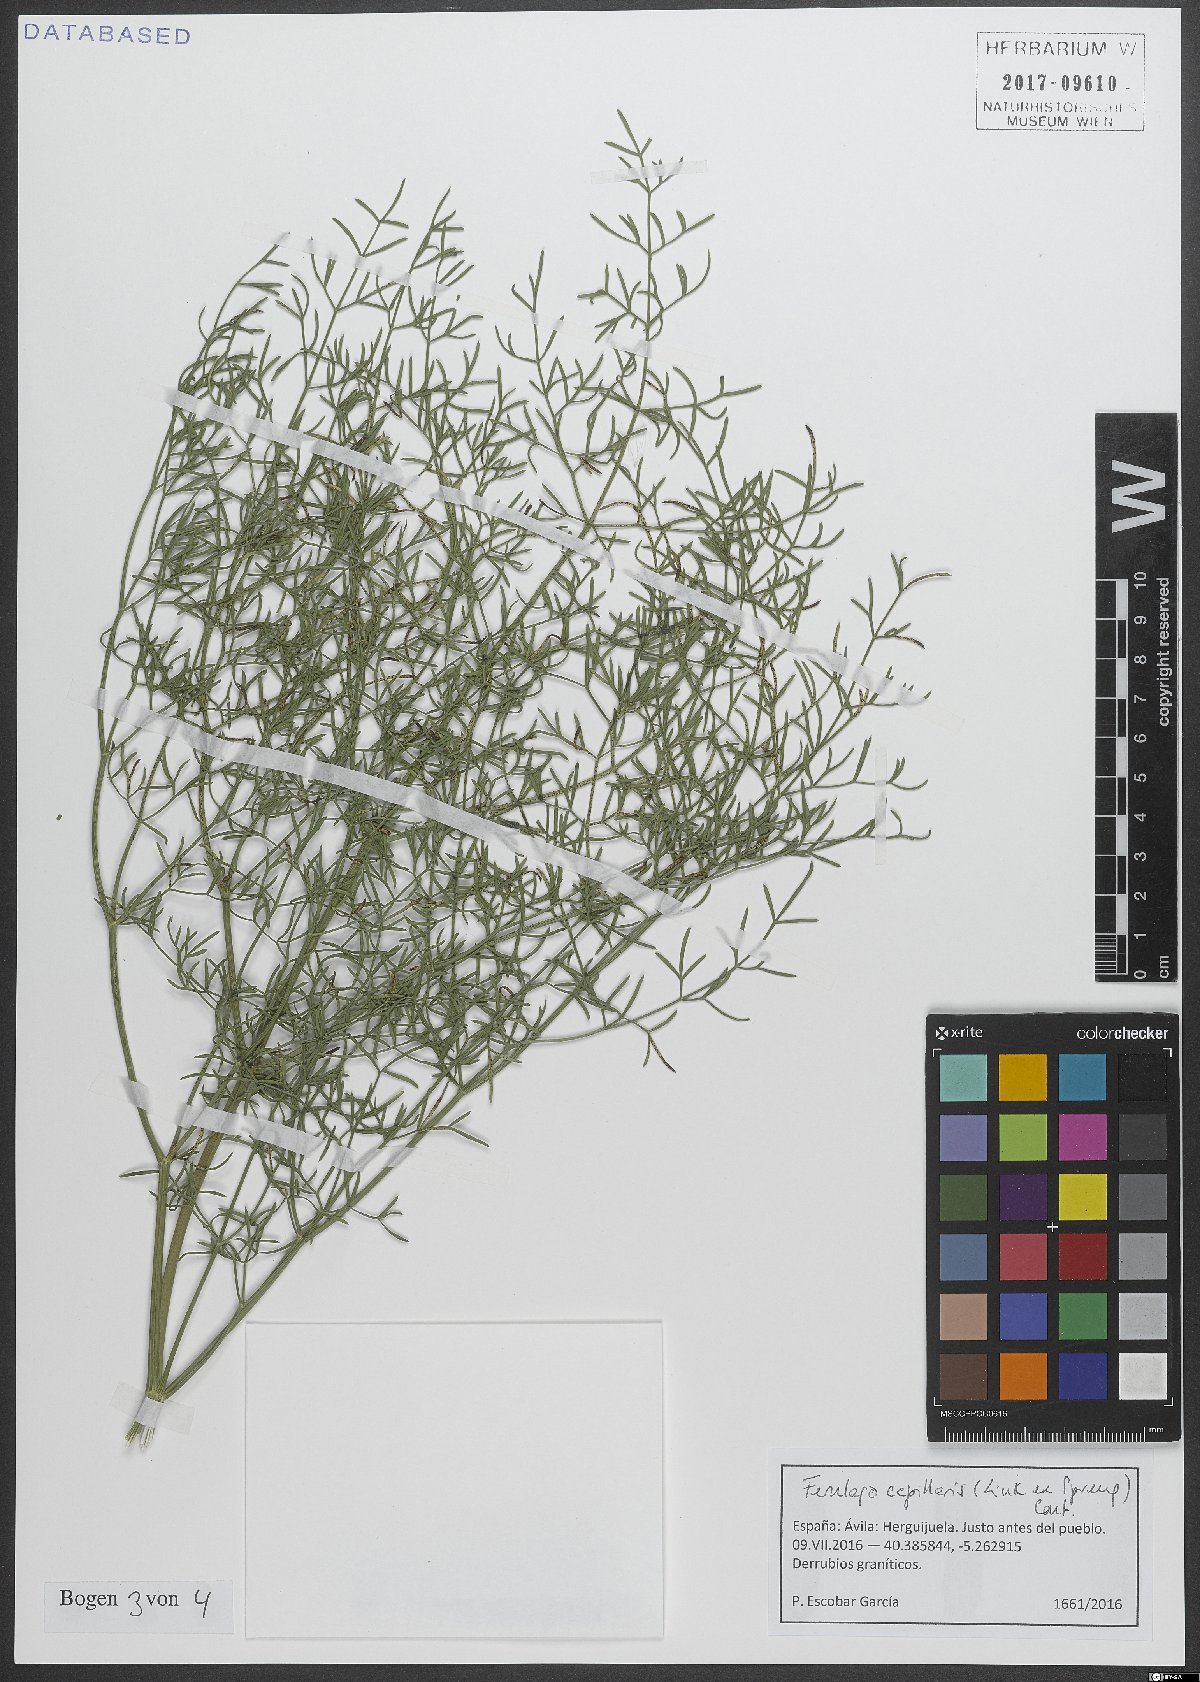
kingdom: Plantae
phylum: Tracheophyta
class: Magnoliopsida
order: Apiales
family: Apiaceae
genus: Ferulago
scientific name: Ferulago capillaris
